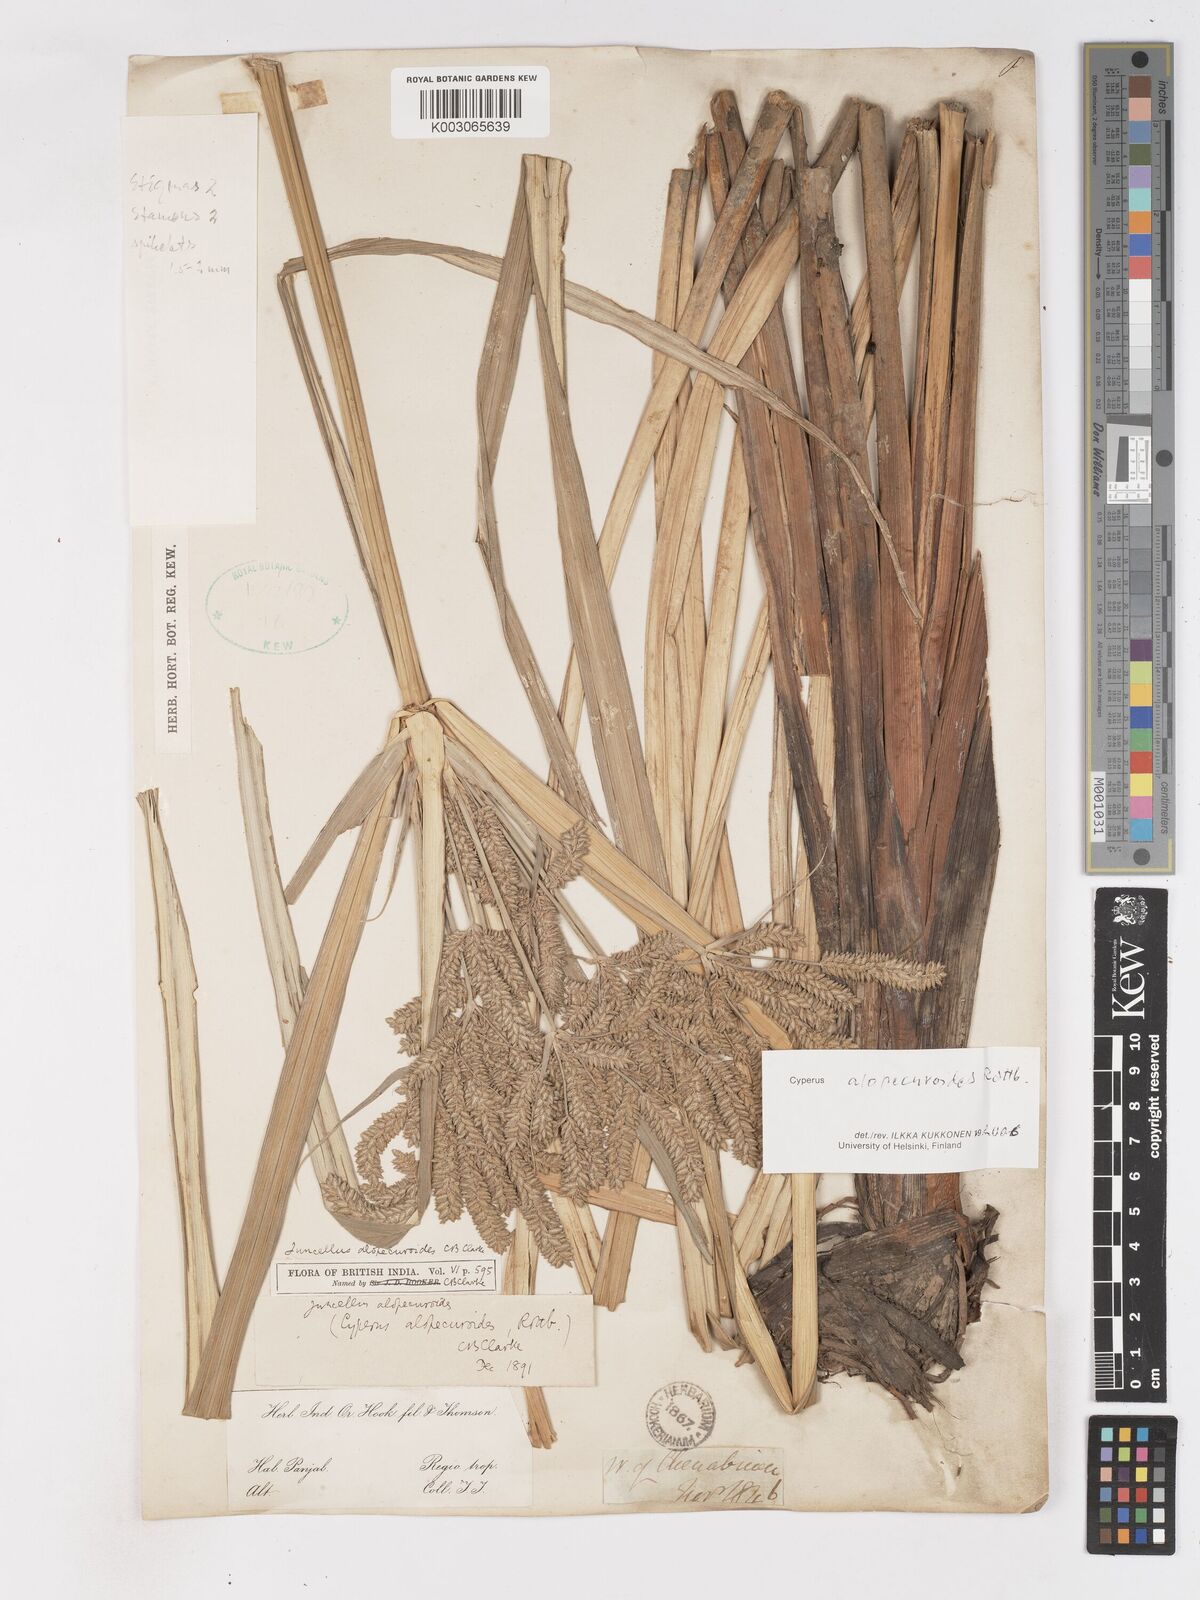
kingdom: Plantae
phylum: Tracheophyta
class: Liliopsida
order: Poales
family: Cyperaceae
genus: Cyperus
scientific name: Cyperus alopecuroides
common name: Foxtail flatsedge
